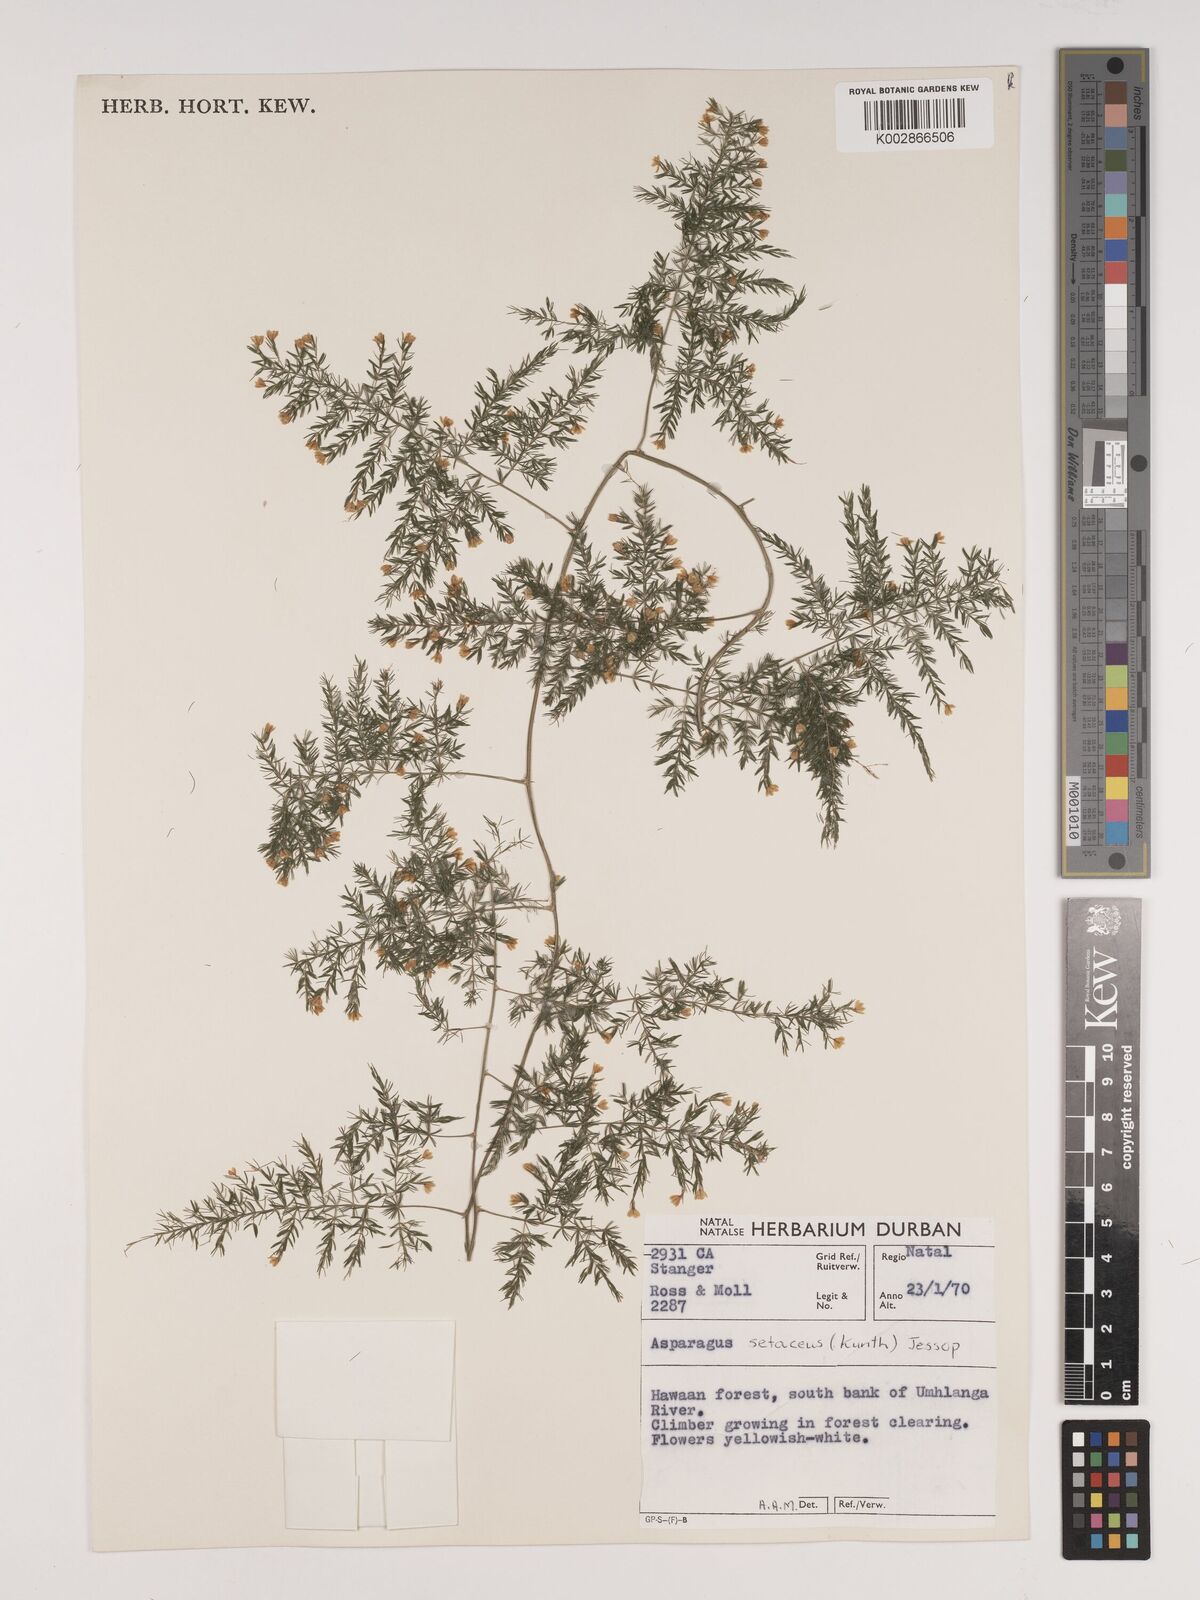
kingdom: Plantae
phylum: Tracheophyta
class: Liliopsida
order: Asparagales
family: Asparagaceae
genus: Asparagus
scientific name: Asparagus setaceus
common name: Common asparagus fern
